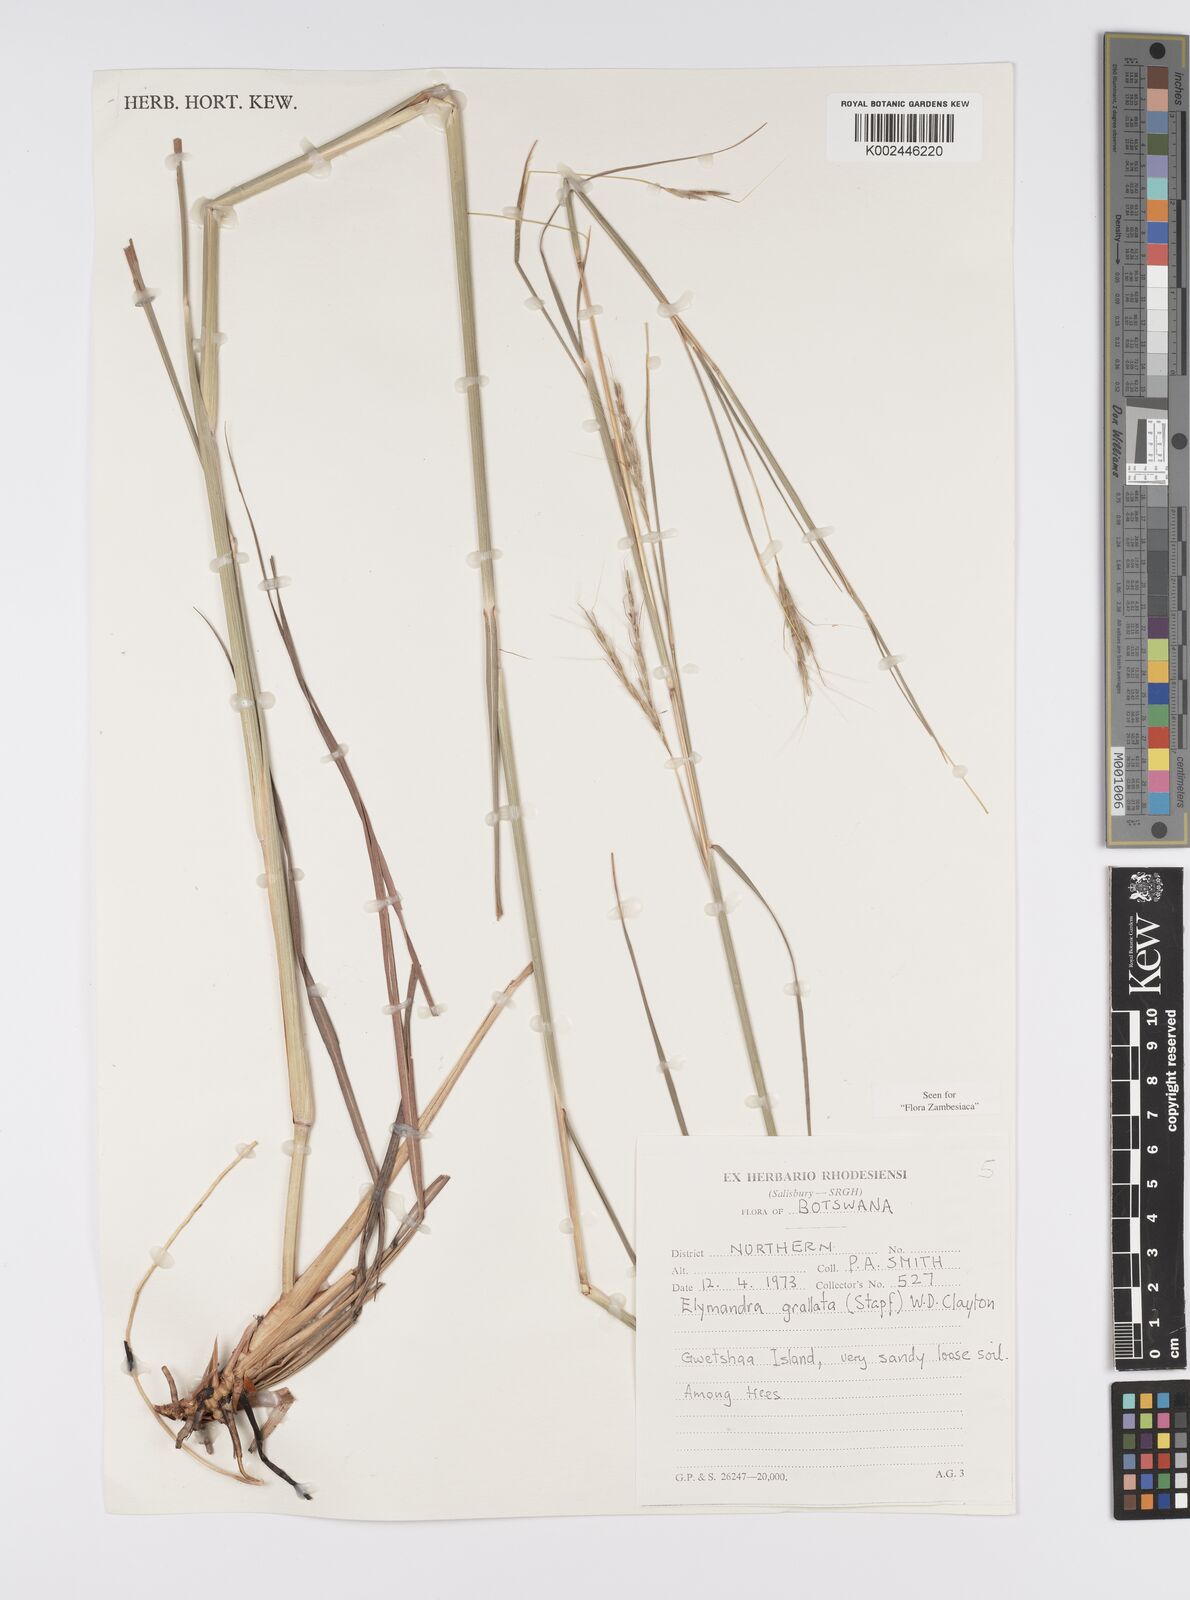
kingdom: Plantae
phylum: Tracheophyta
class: Liliopsida
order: Poales
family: Poaceae
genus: Elymandra
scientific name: Elymandra grallata
